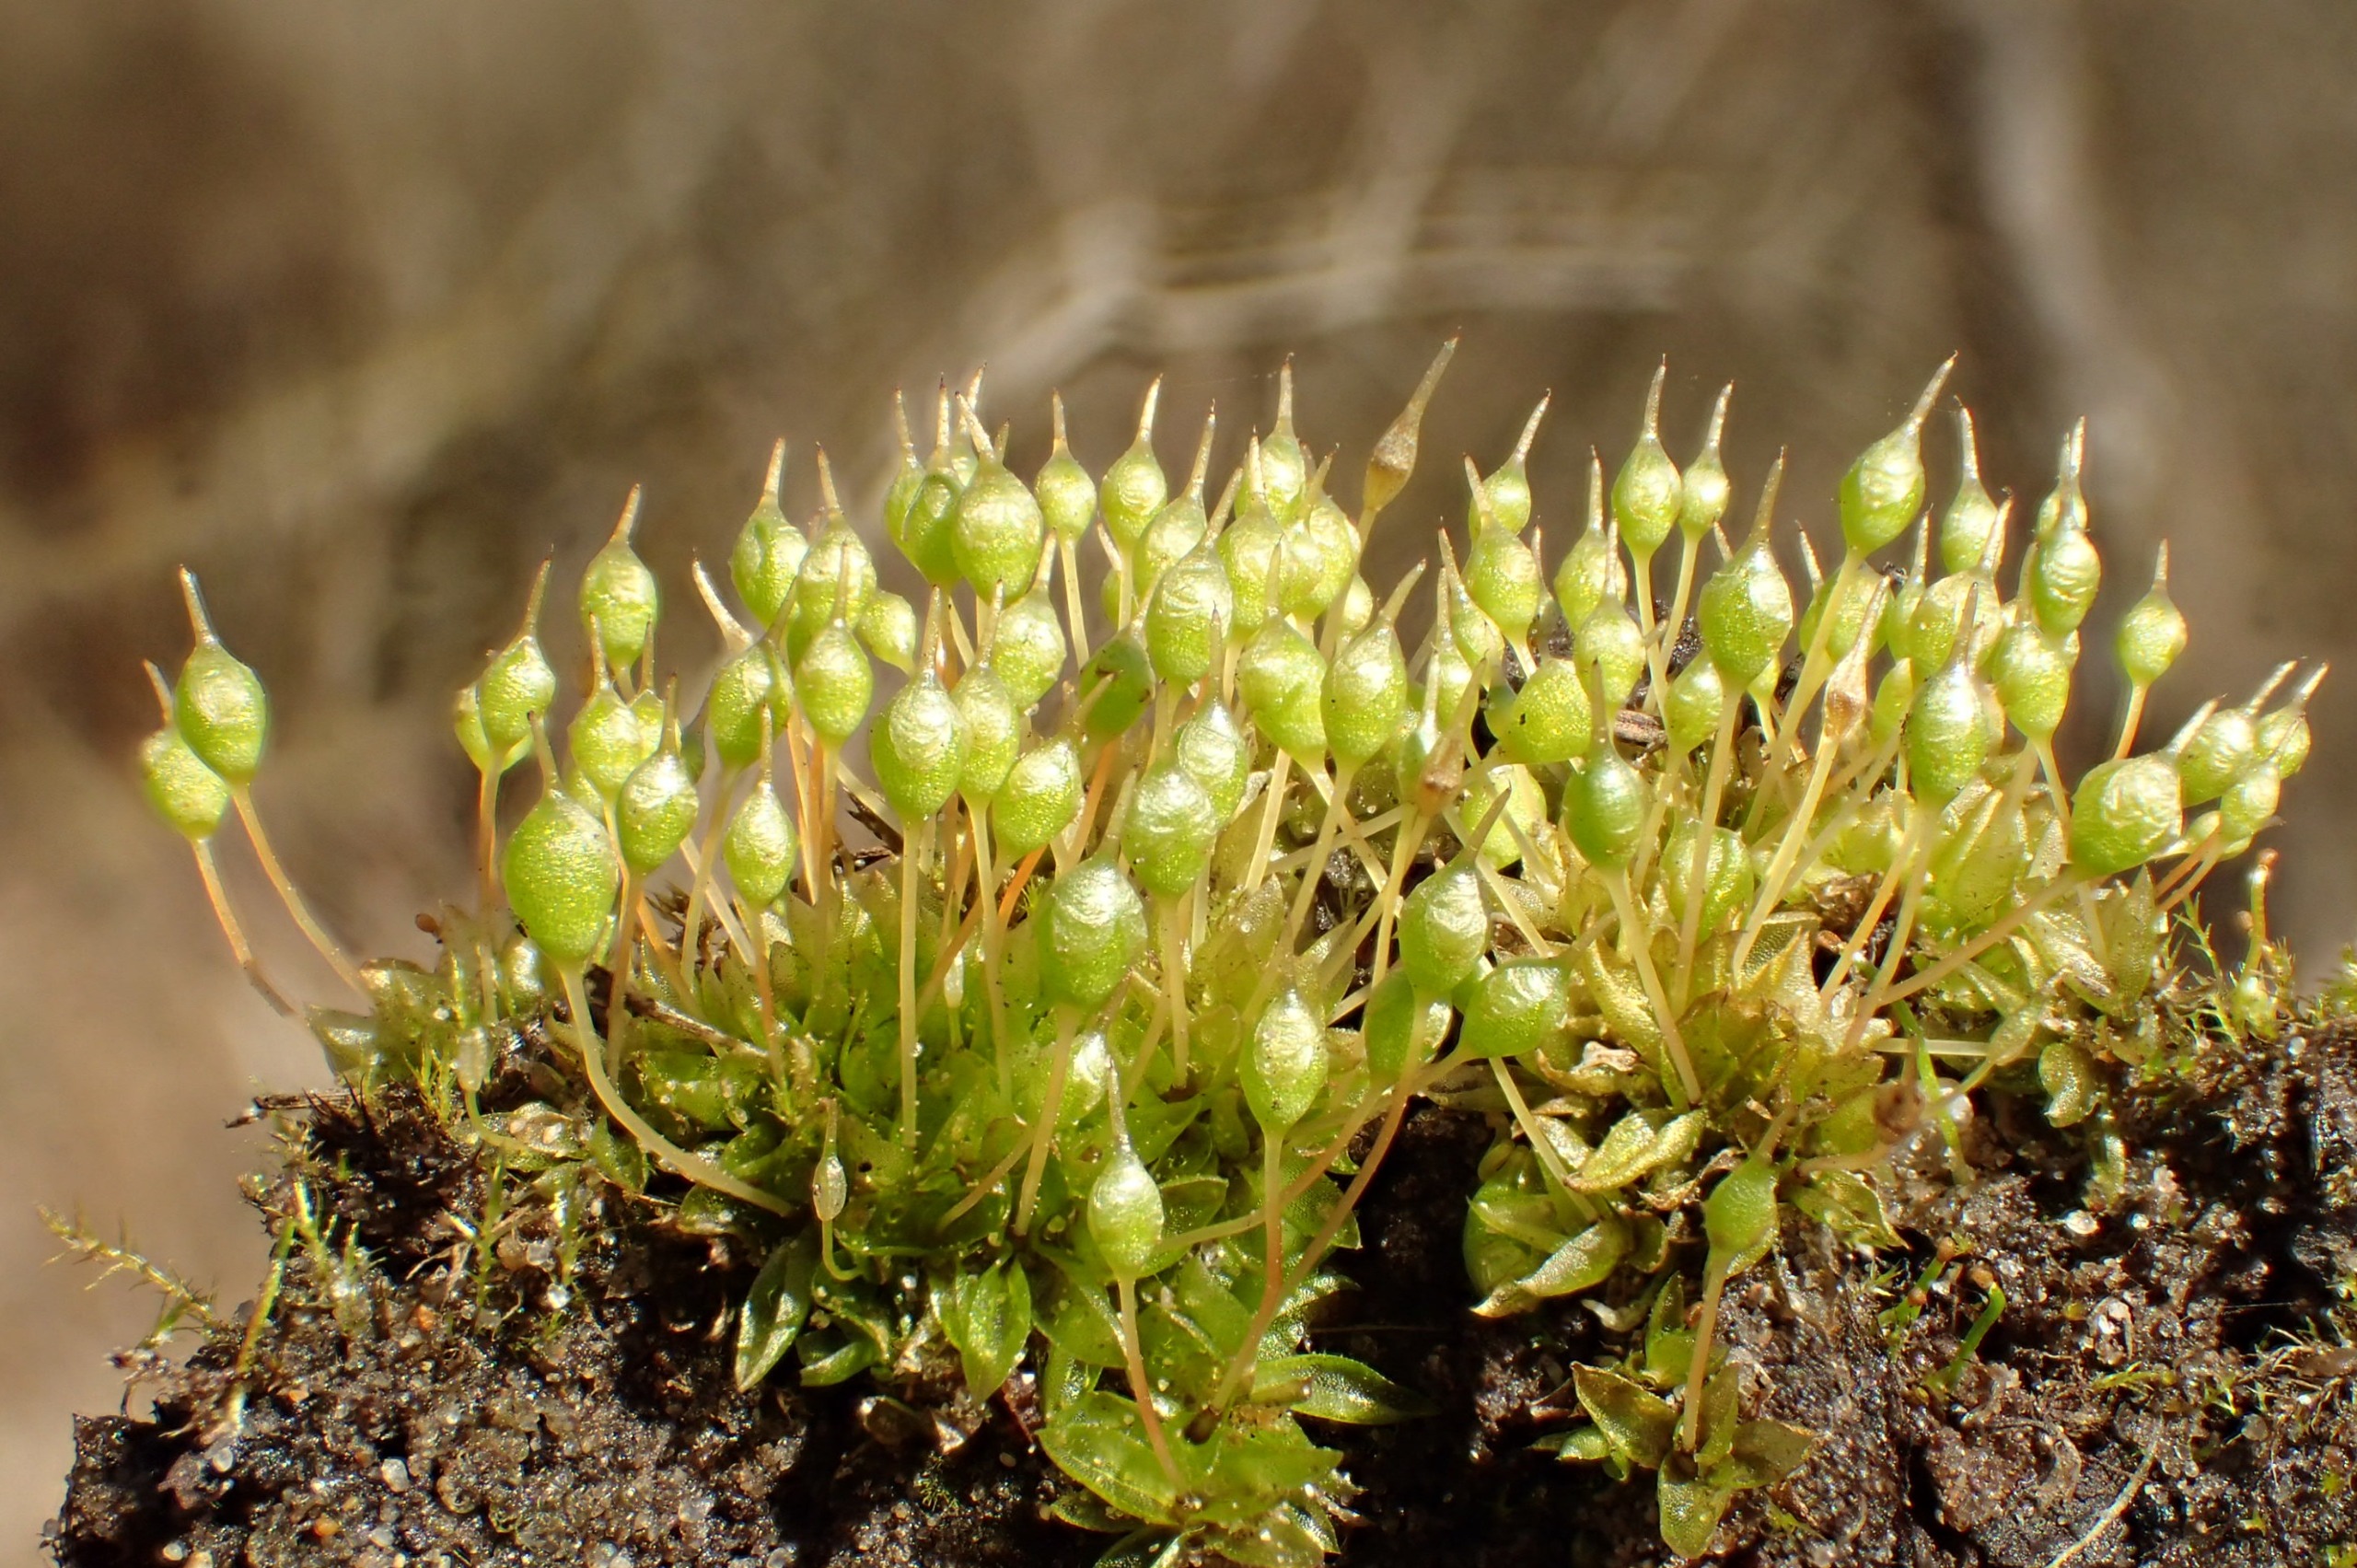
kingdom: Plantae
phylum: Bryophyta
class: Bryopsida
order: Funariales
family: Funariaceae
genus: Physcomitrium
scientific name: Physcomitrium pyriforme
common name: Almindelig pærekapsel
